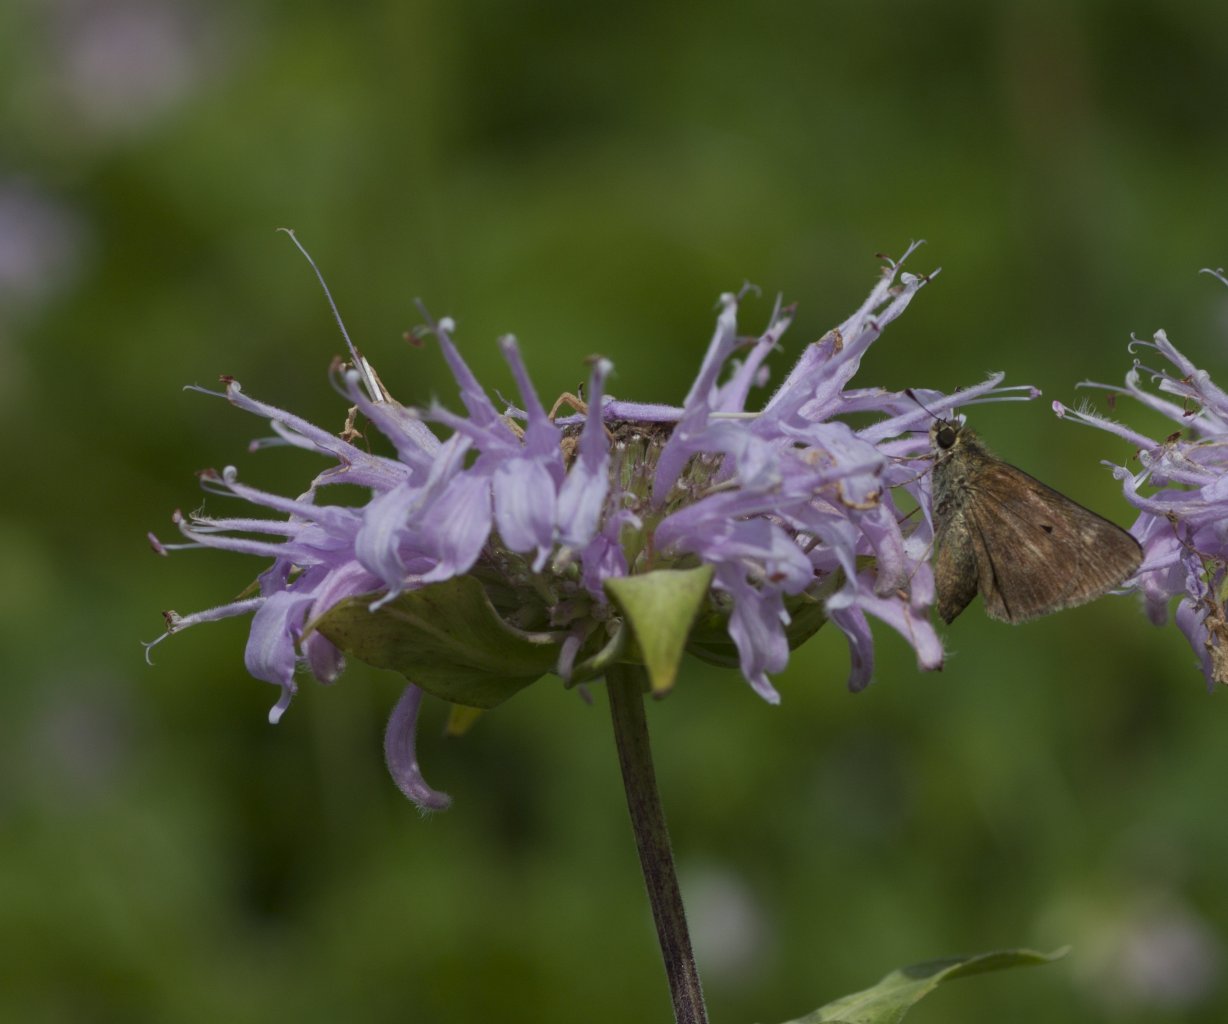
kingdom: Animalia
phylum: Arthropoda
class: Insecta
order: Lepidoptera
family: Hesperiidae
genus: Euphyes
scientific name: Euphyes vestris
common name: Dun Skipper
